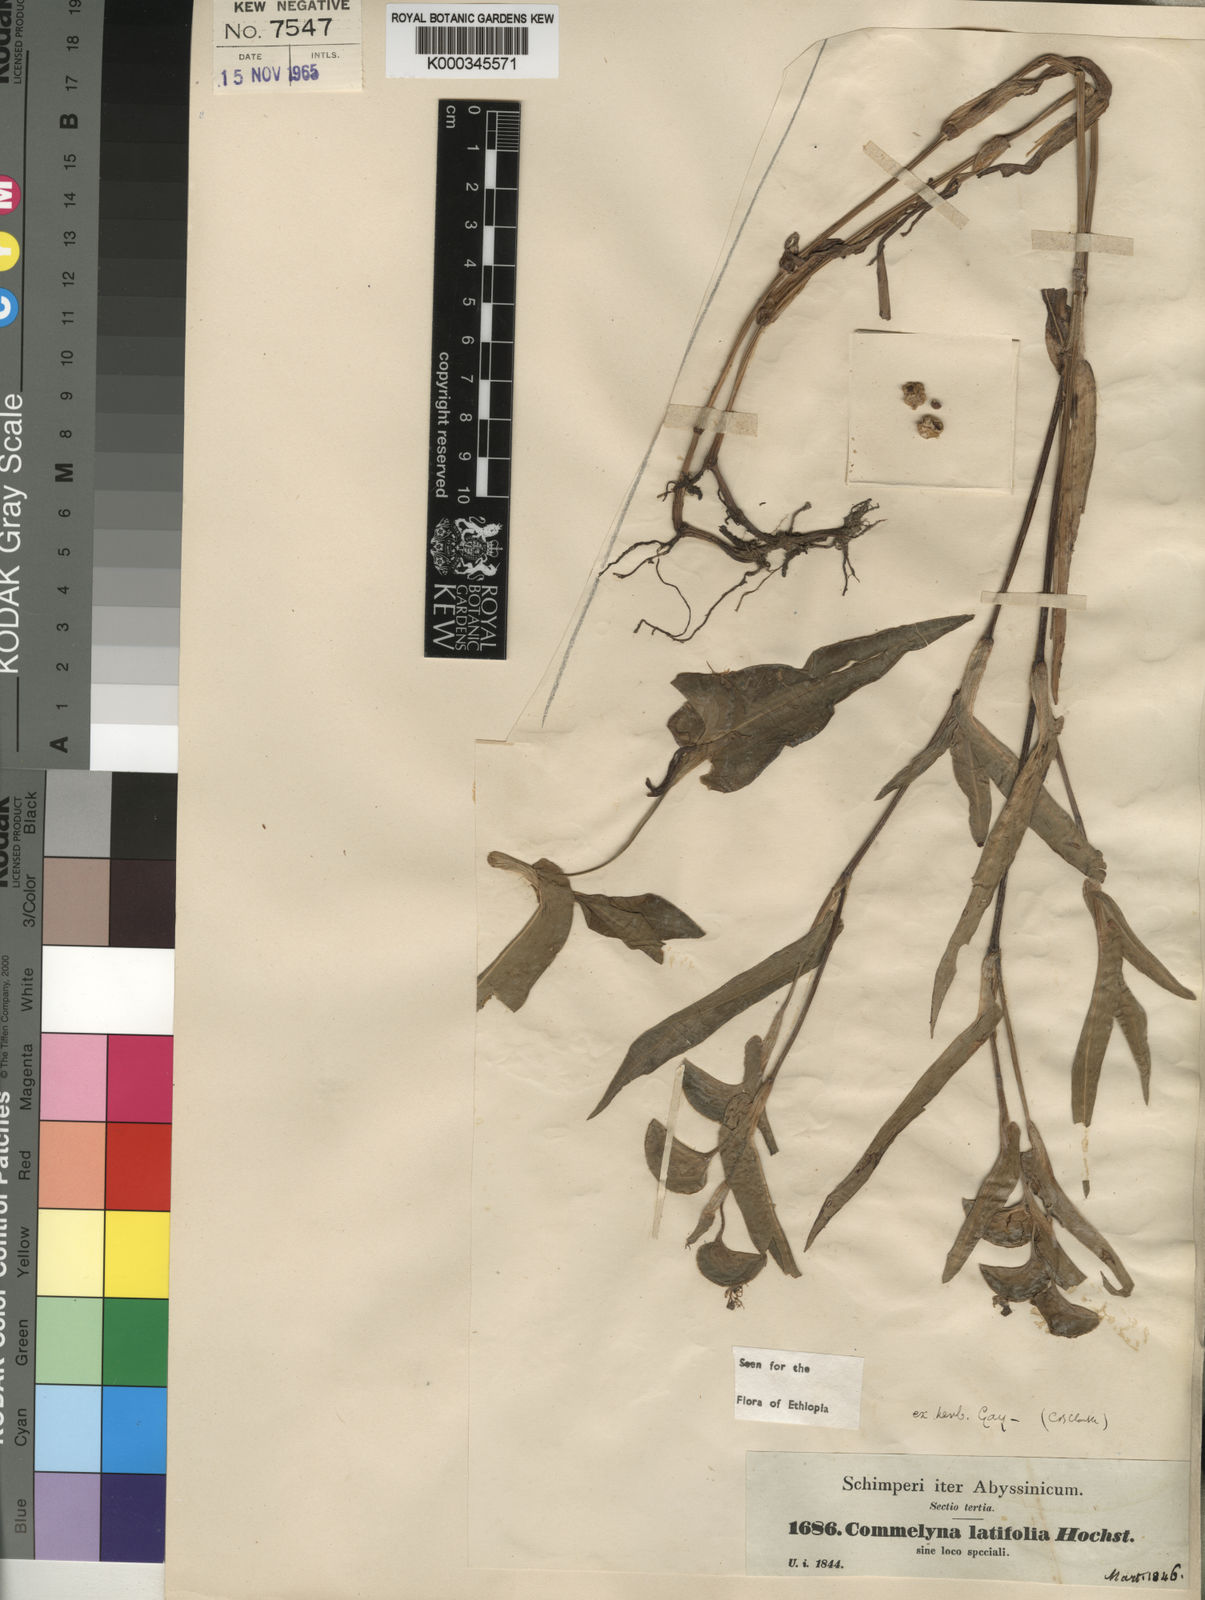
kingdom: Plantae
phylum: Tracheophyta
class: Liliopsida
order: Commelinales
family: Commelinaceae
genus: Commelina
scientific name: Commelina
